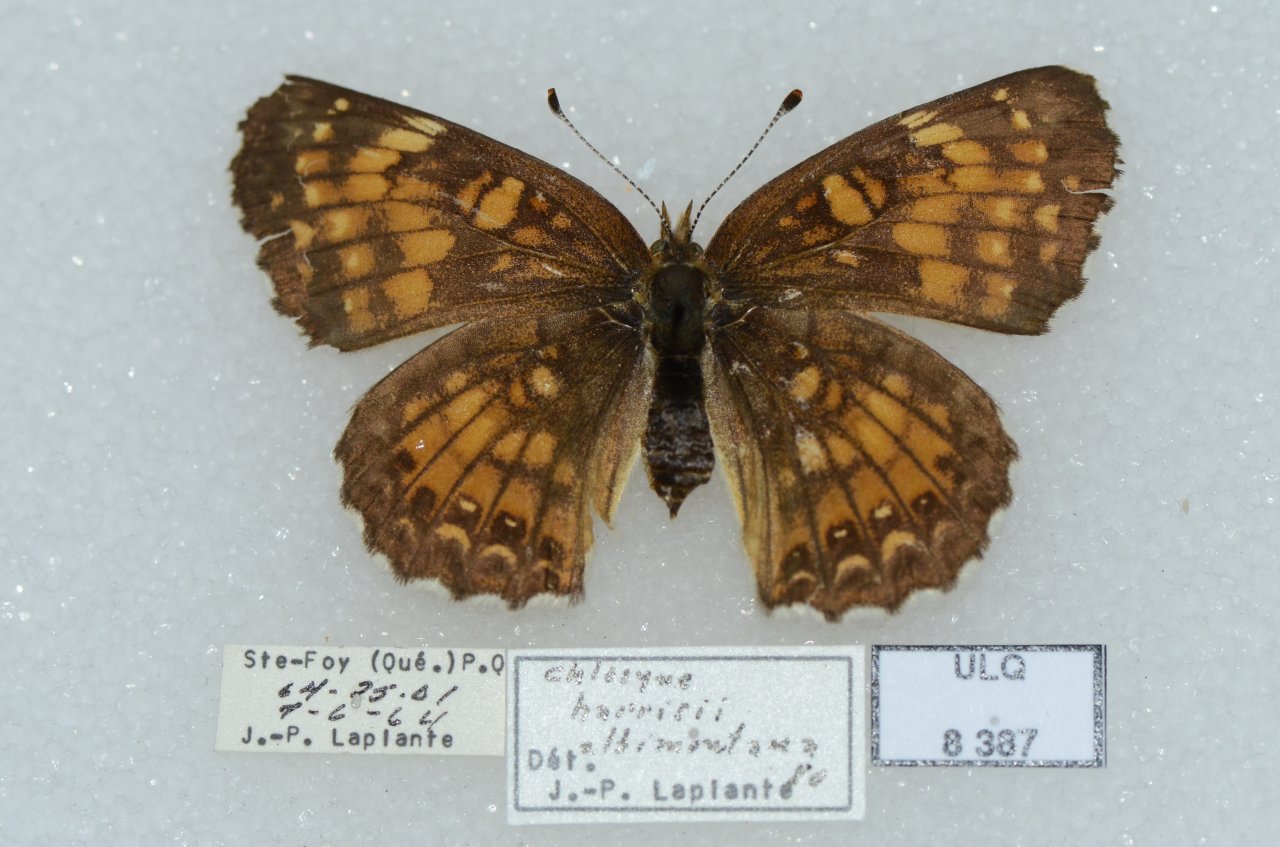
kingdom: Animalia
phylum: Arthropoda
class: Insecta
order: Lepidoptera
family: Nymphalidae
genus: Chlosyne
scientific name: Chlosyne harrisii
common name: Harris's Checkerspot
